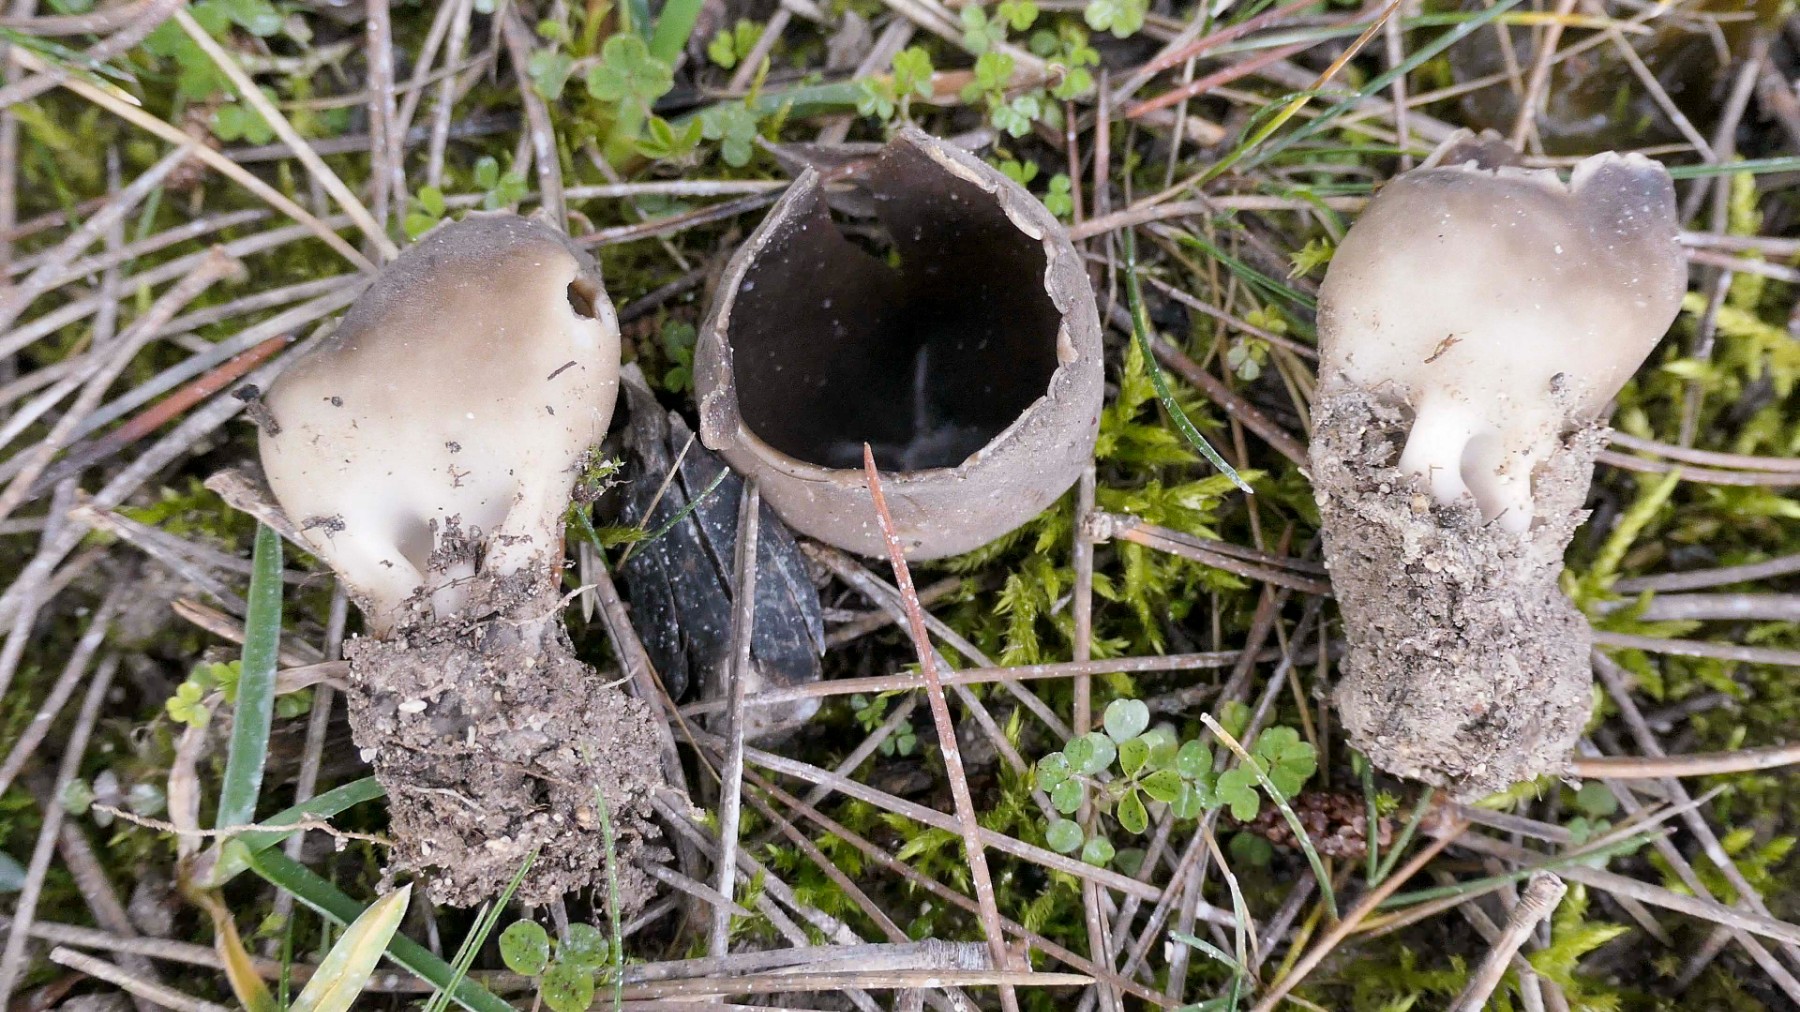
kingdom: Fungi
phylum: Ascomycota
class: Pezizomycetes
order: Pezizales
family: Helvellaceae
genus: Dissingia
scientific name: Dissingia leucomelaena
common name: sorthvid foldhat
